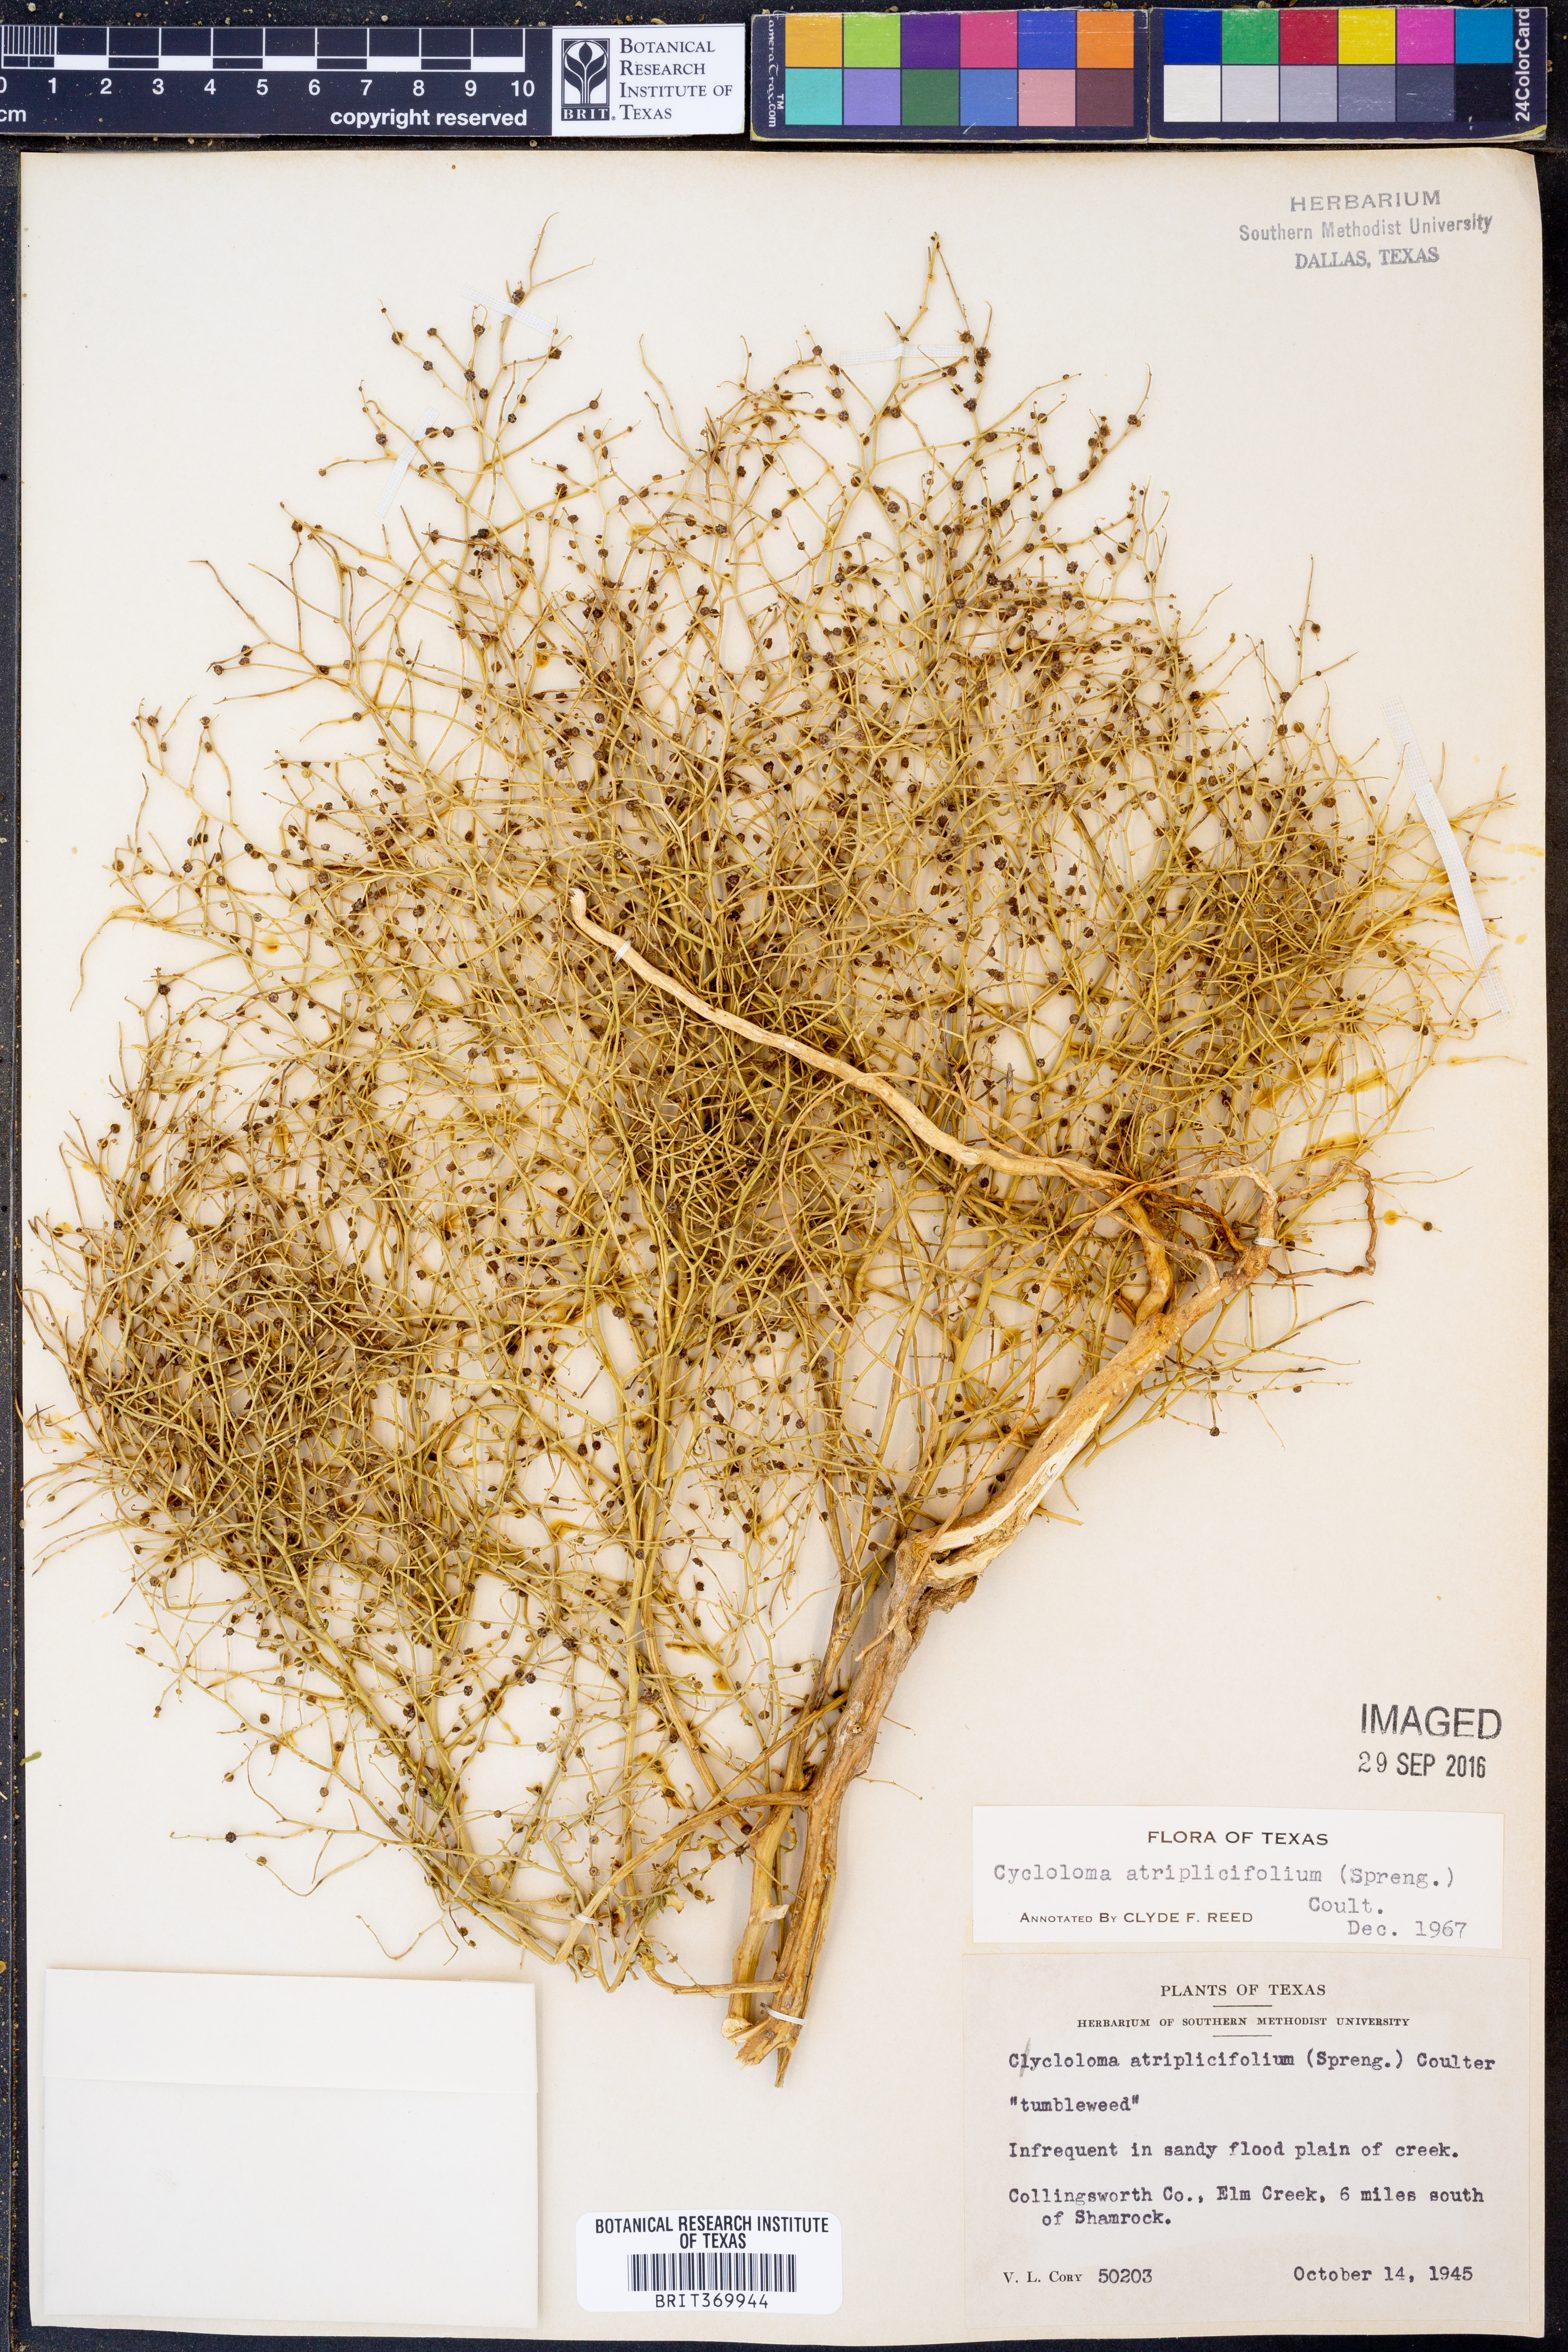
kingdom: Plantae
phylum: Tracheophyta
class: Magnoliopsida
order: Caryophyllales
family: Amaranthaceae
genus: Dysphania
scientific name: Dysphania atriplicifolia
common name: Plains tumbleweed
